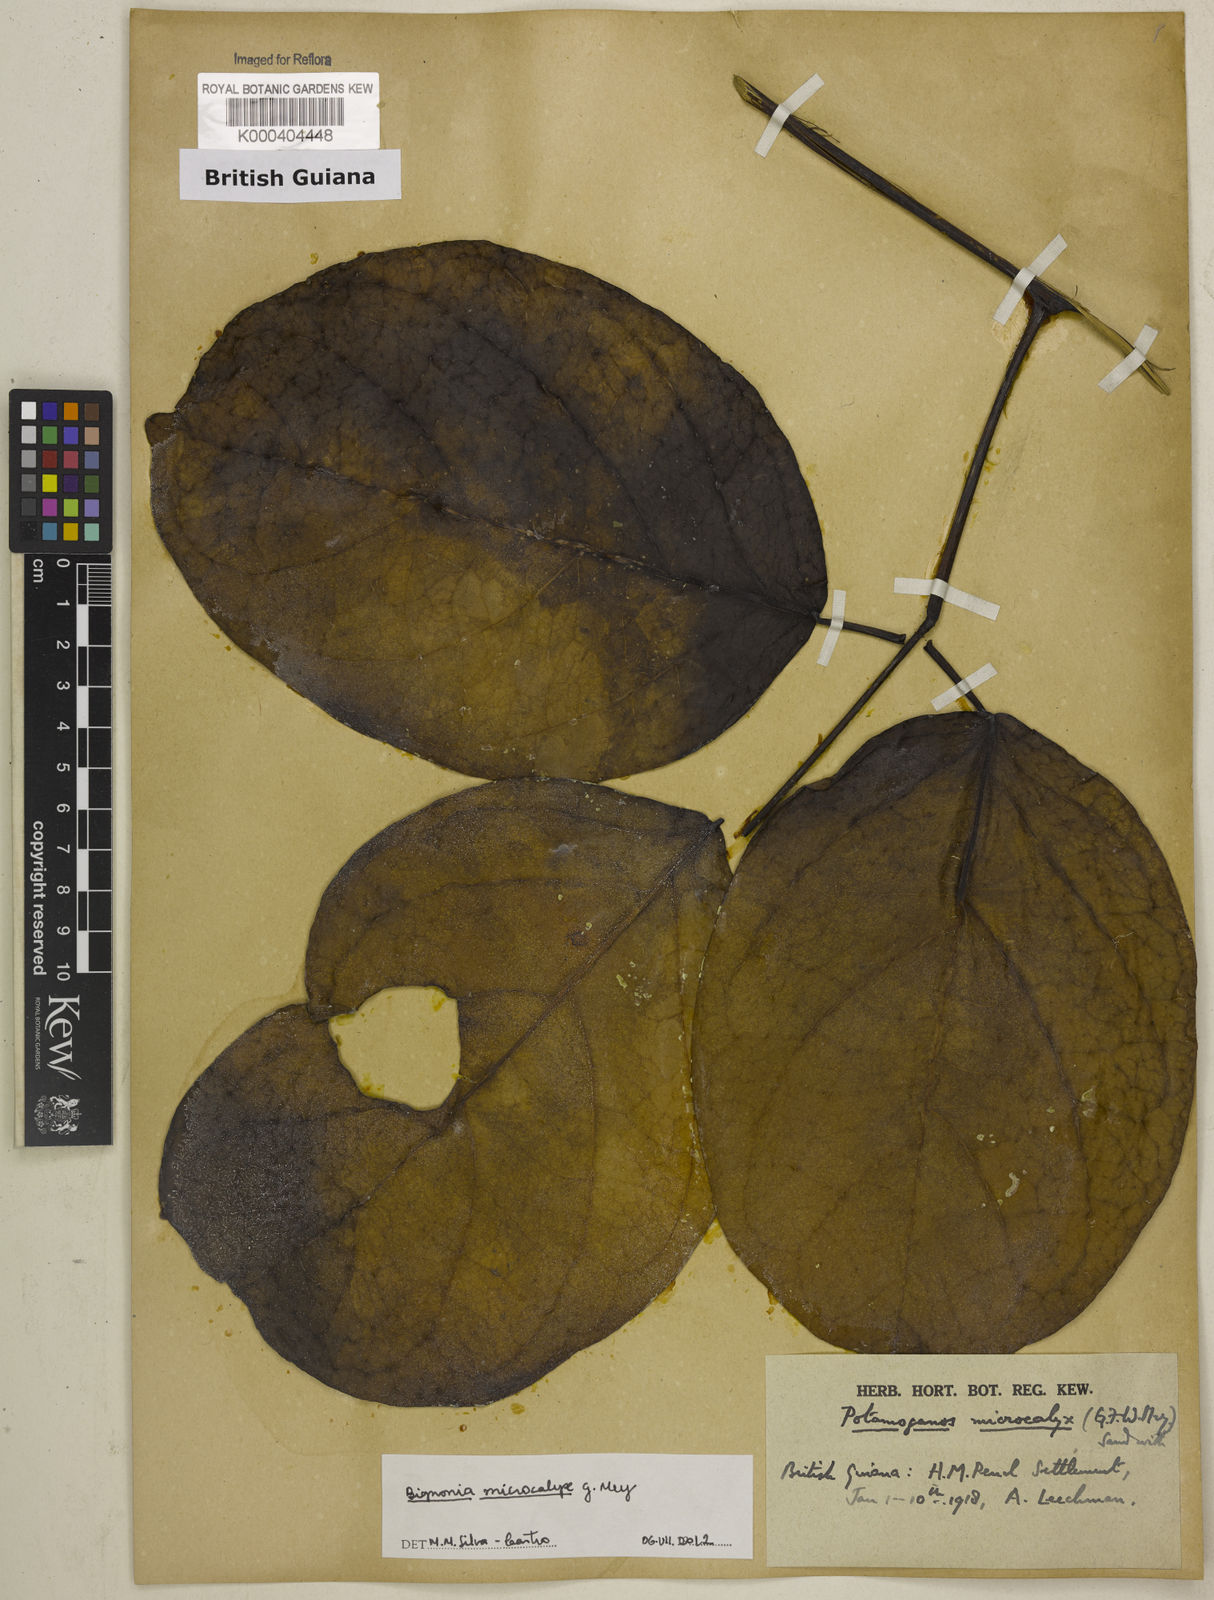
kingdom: Plantae
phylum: Tracheophyta
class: Magnoliopsida
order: Lamiales
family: Bignoniaceae
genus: Bignonia
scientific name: Bignonia microcalyx
